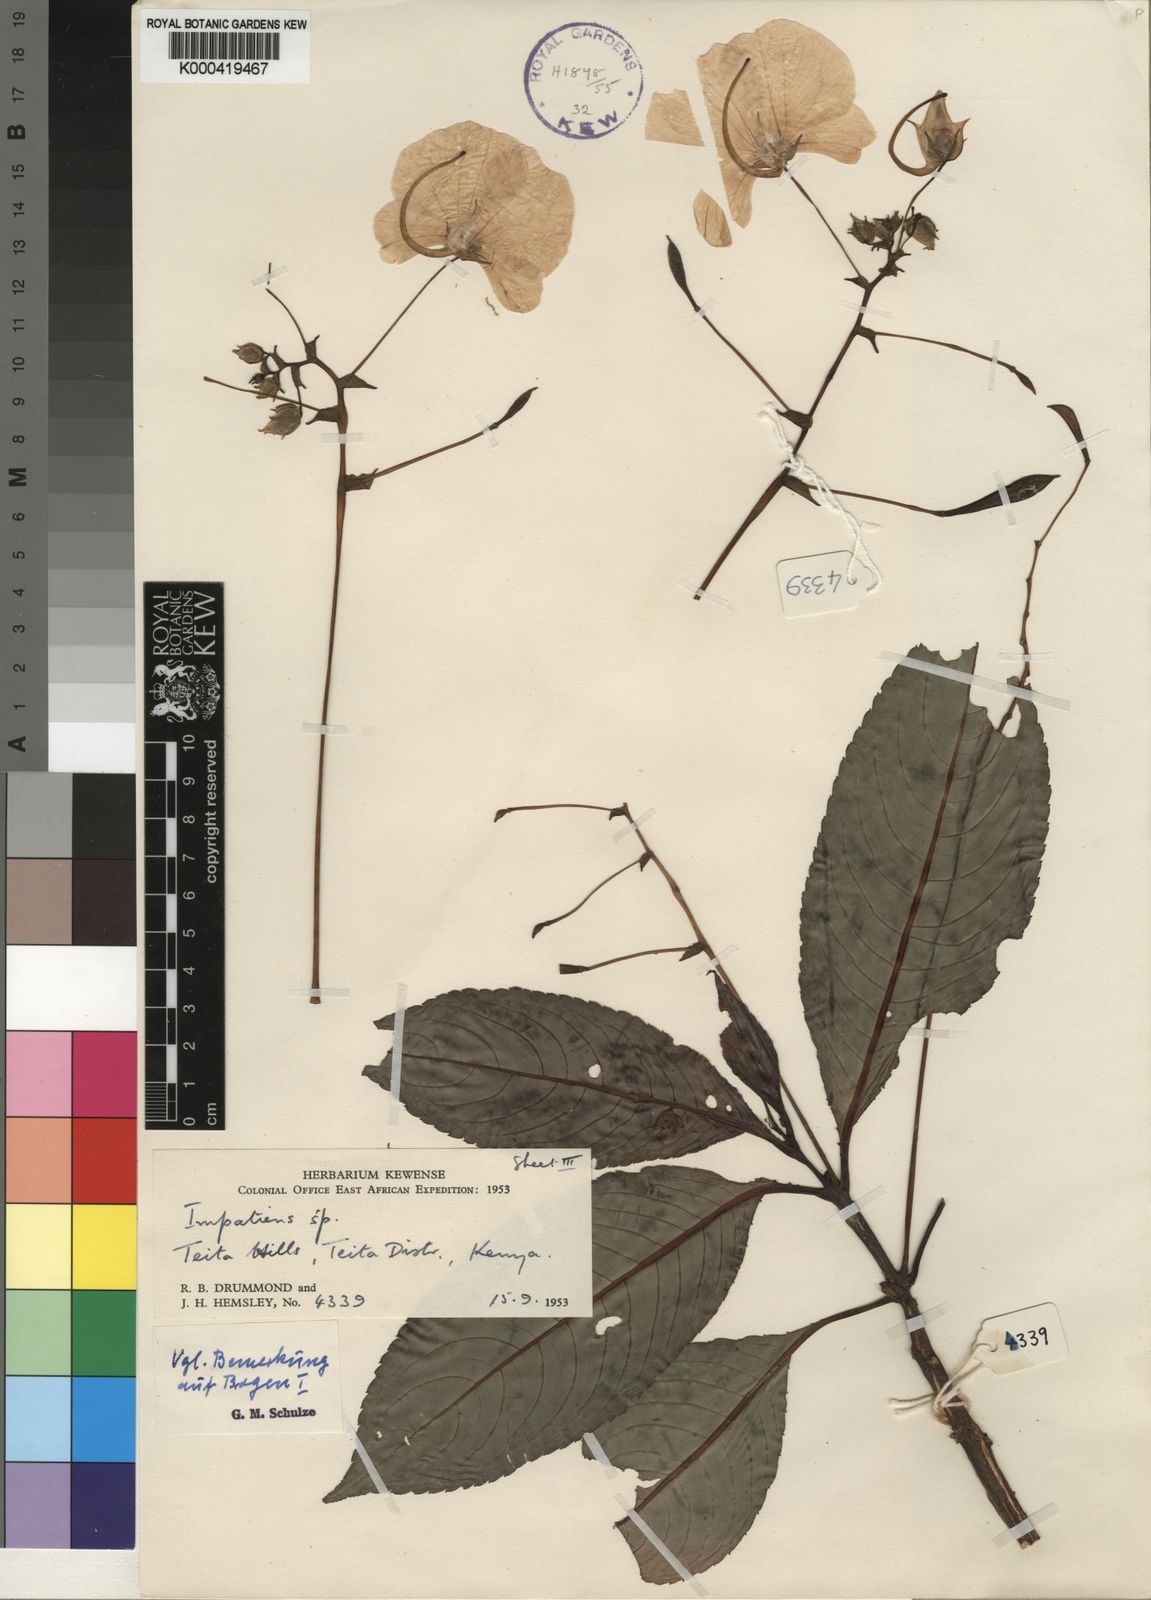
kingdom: Plantae
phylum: Tracheophyta
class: Magnoliopsida
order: Ericales
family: Balsaminaceae
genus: Impatiens
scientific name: Impatiens teitensis
